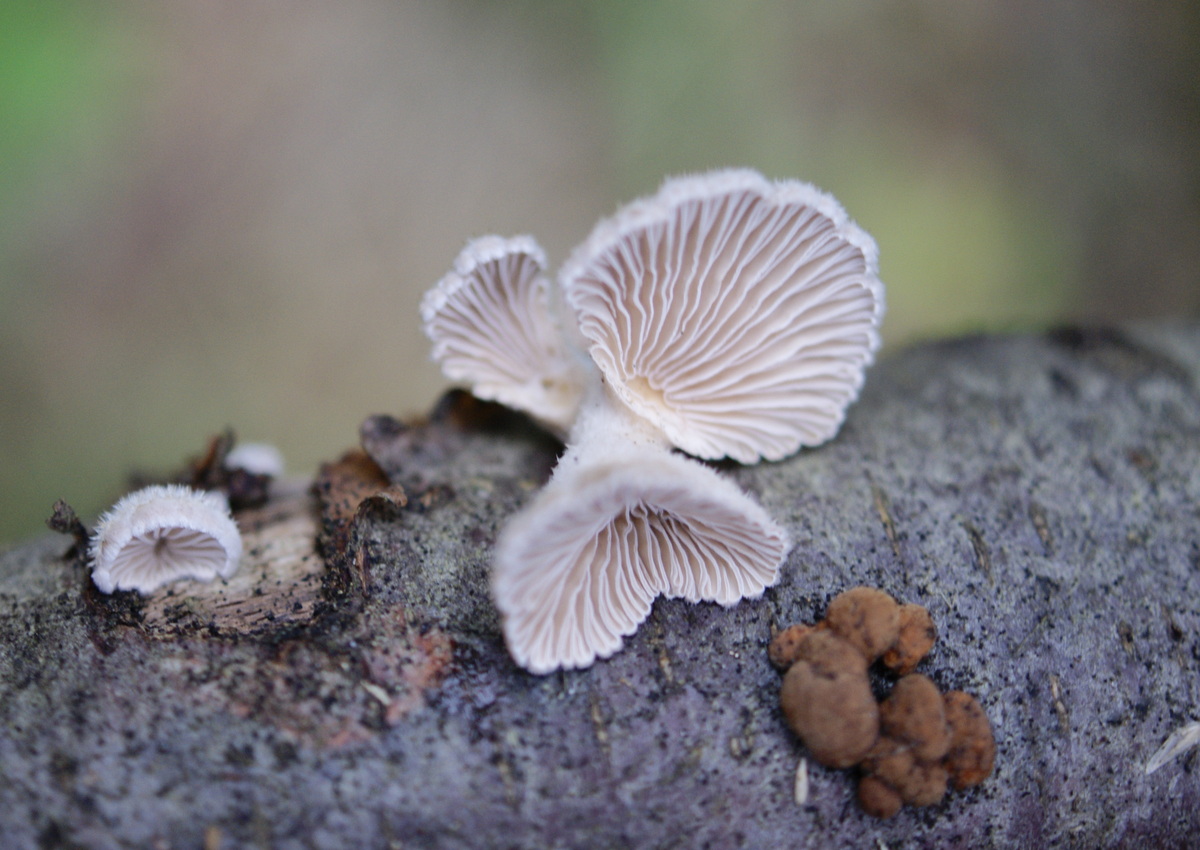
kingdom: Fungi
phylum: Basidiomycota
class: Agaricomycetes
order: Agaricales
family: Schizophyllaceae
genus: Schizophyllum
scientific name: Schizophyllum commune
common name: kløvblad
